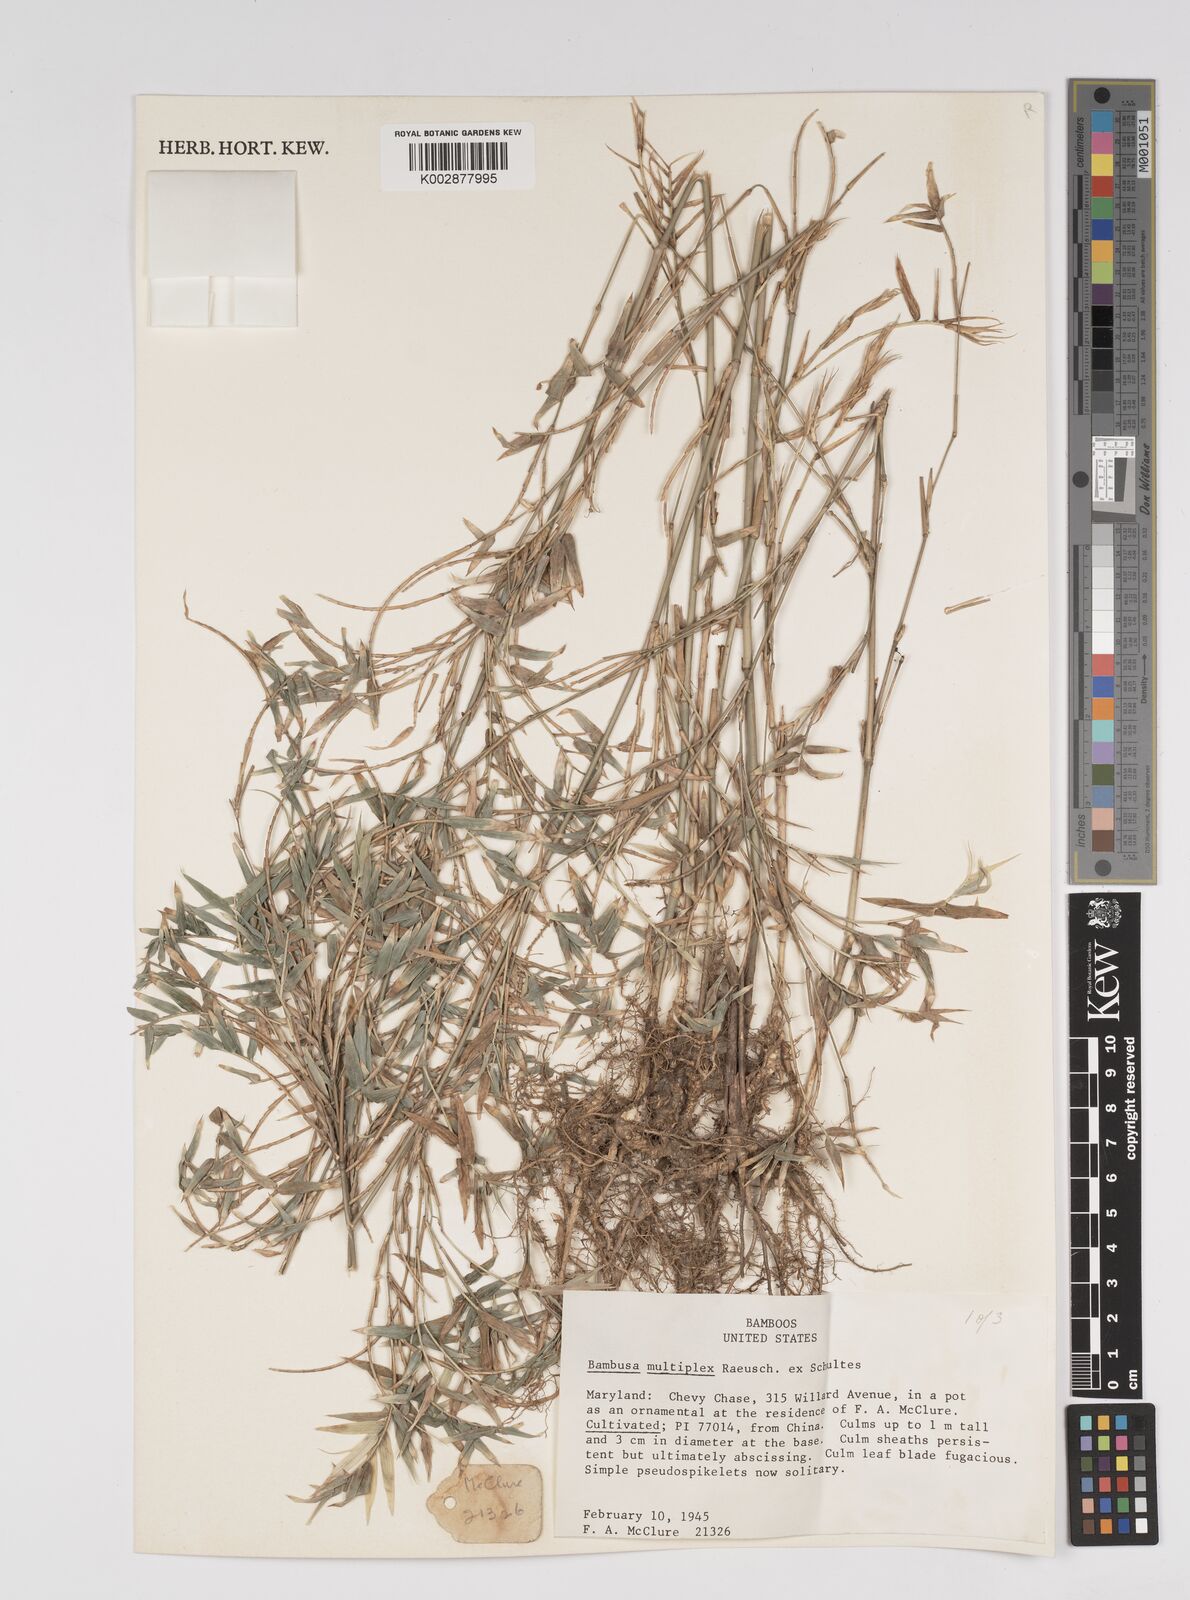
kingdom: Plantae
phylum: Tracheophyta
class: Liliopsida
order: Poales
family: Poaceae
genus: Bambusa
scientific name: Bambusa multiplex
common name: Hedge bamboo
